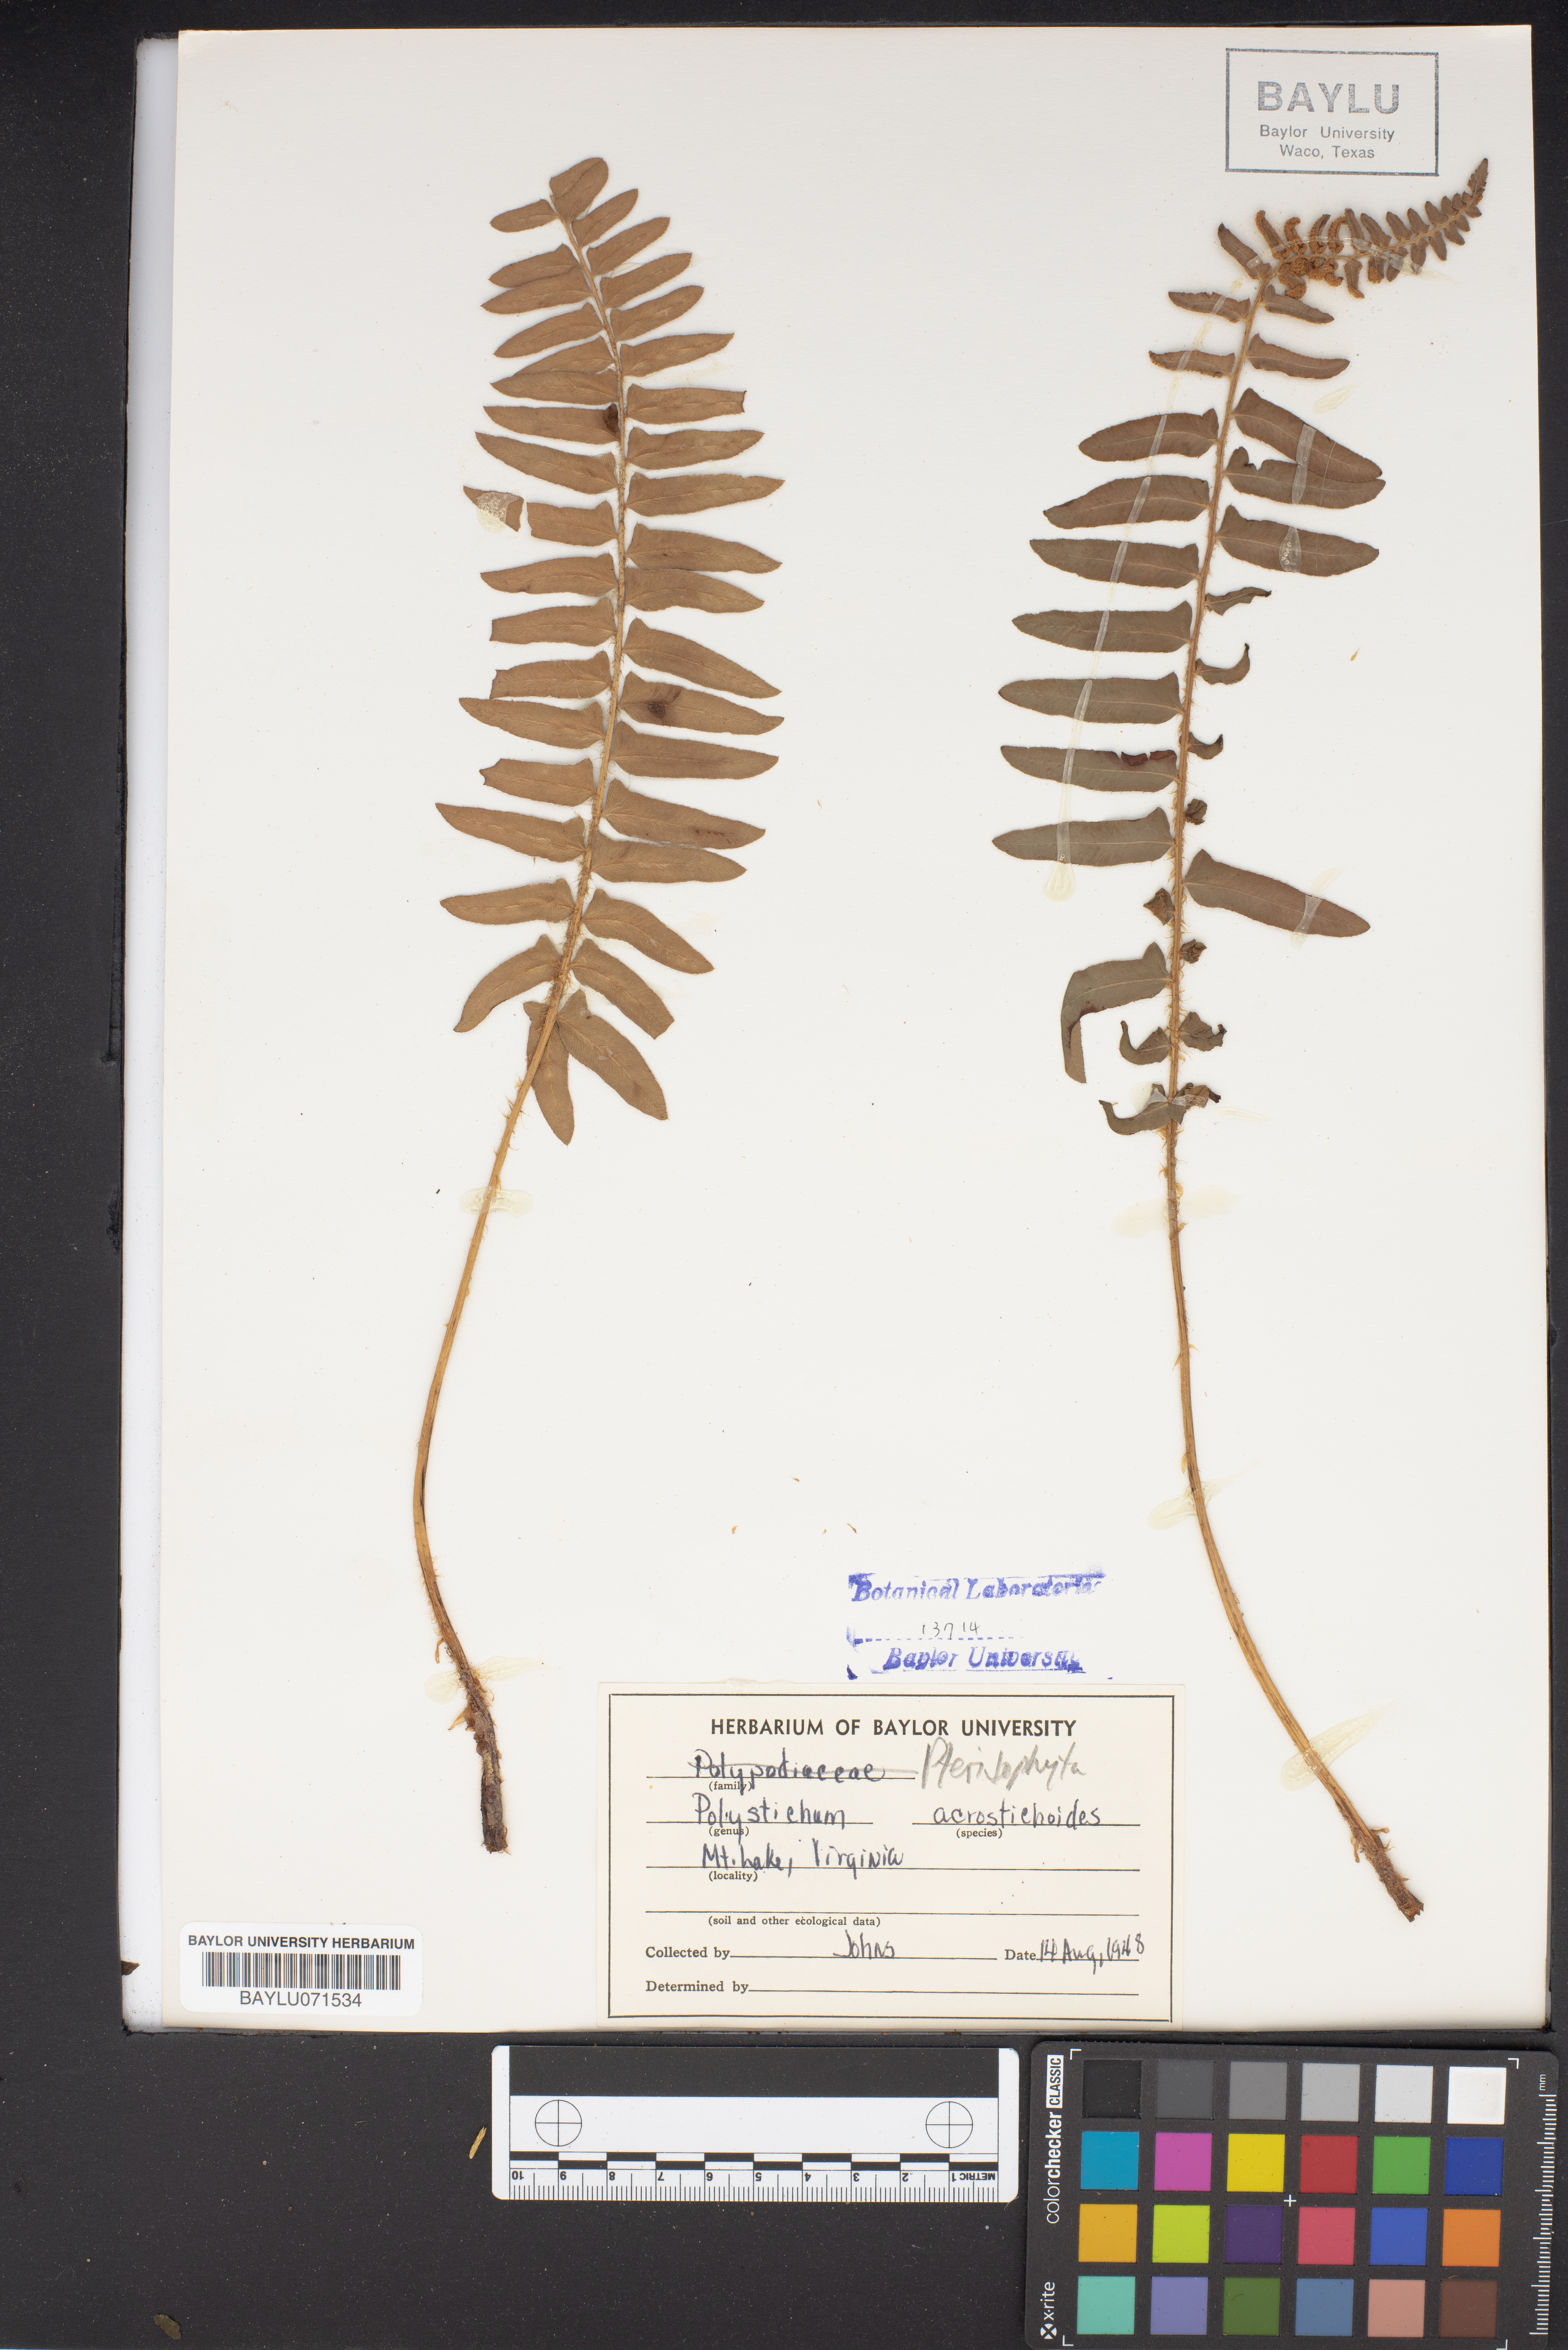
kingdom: Plantae
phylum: Tracheophyta
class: Polypodiopsida
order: Polypodiales
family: Dryopteridaceae
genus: Polystichum
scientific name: Polystichum acrostichoides
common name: Christmas fern
